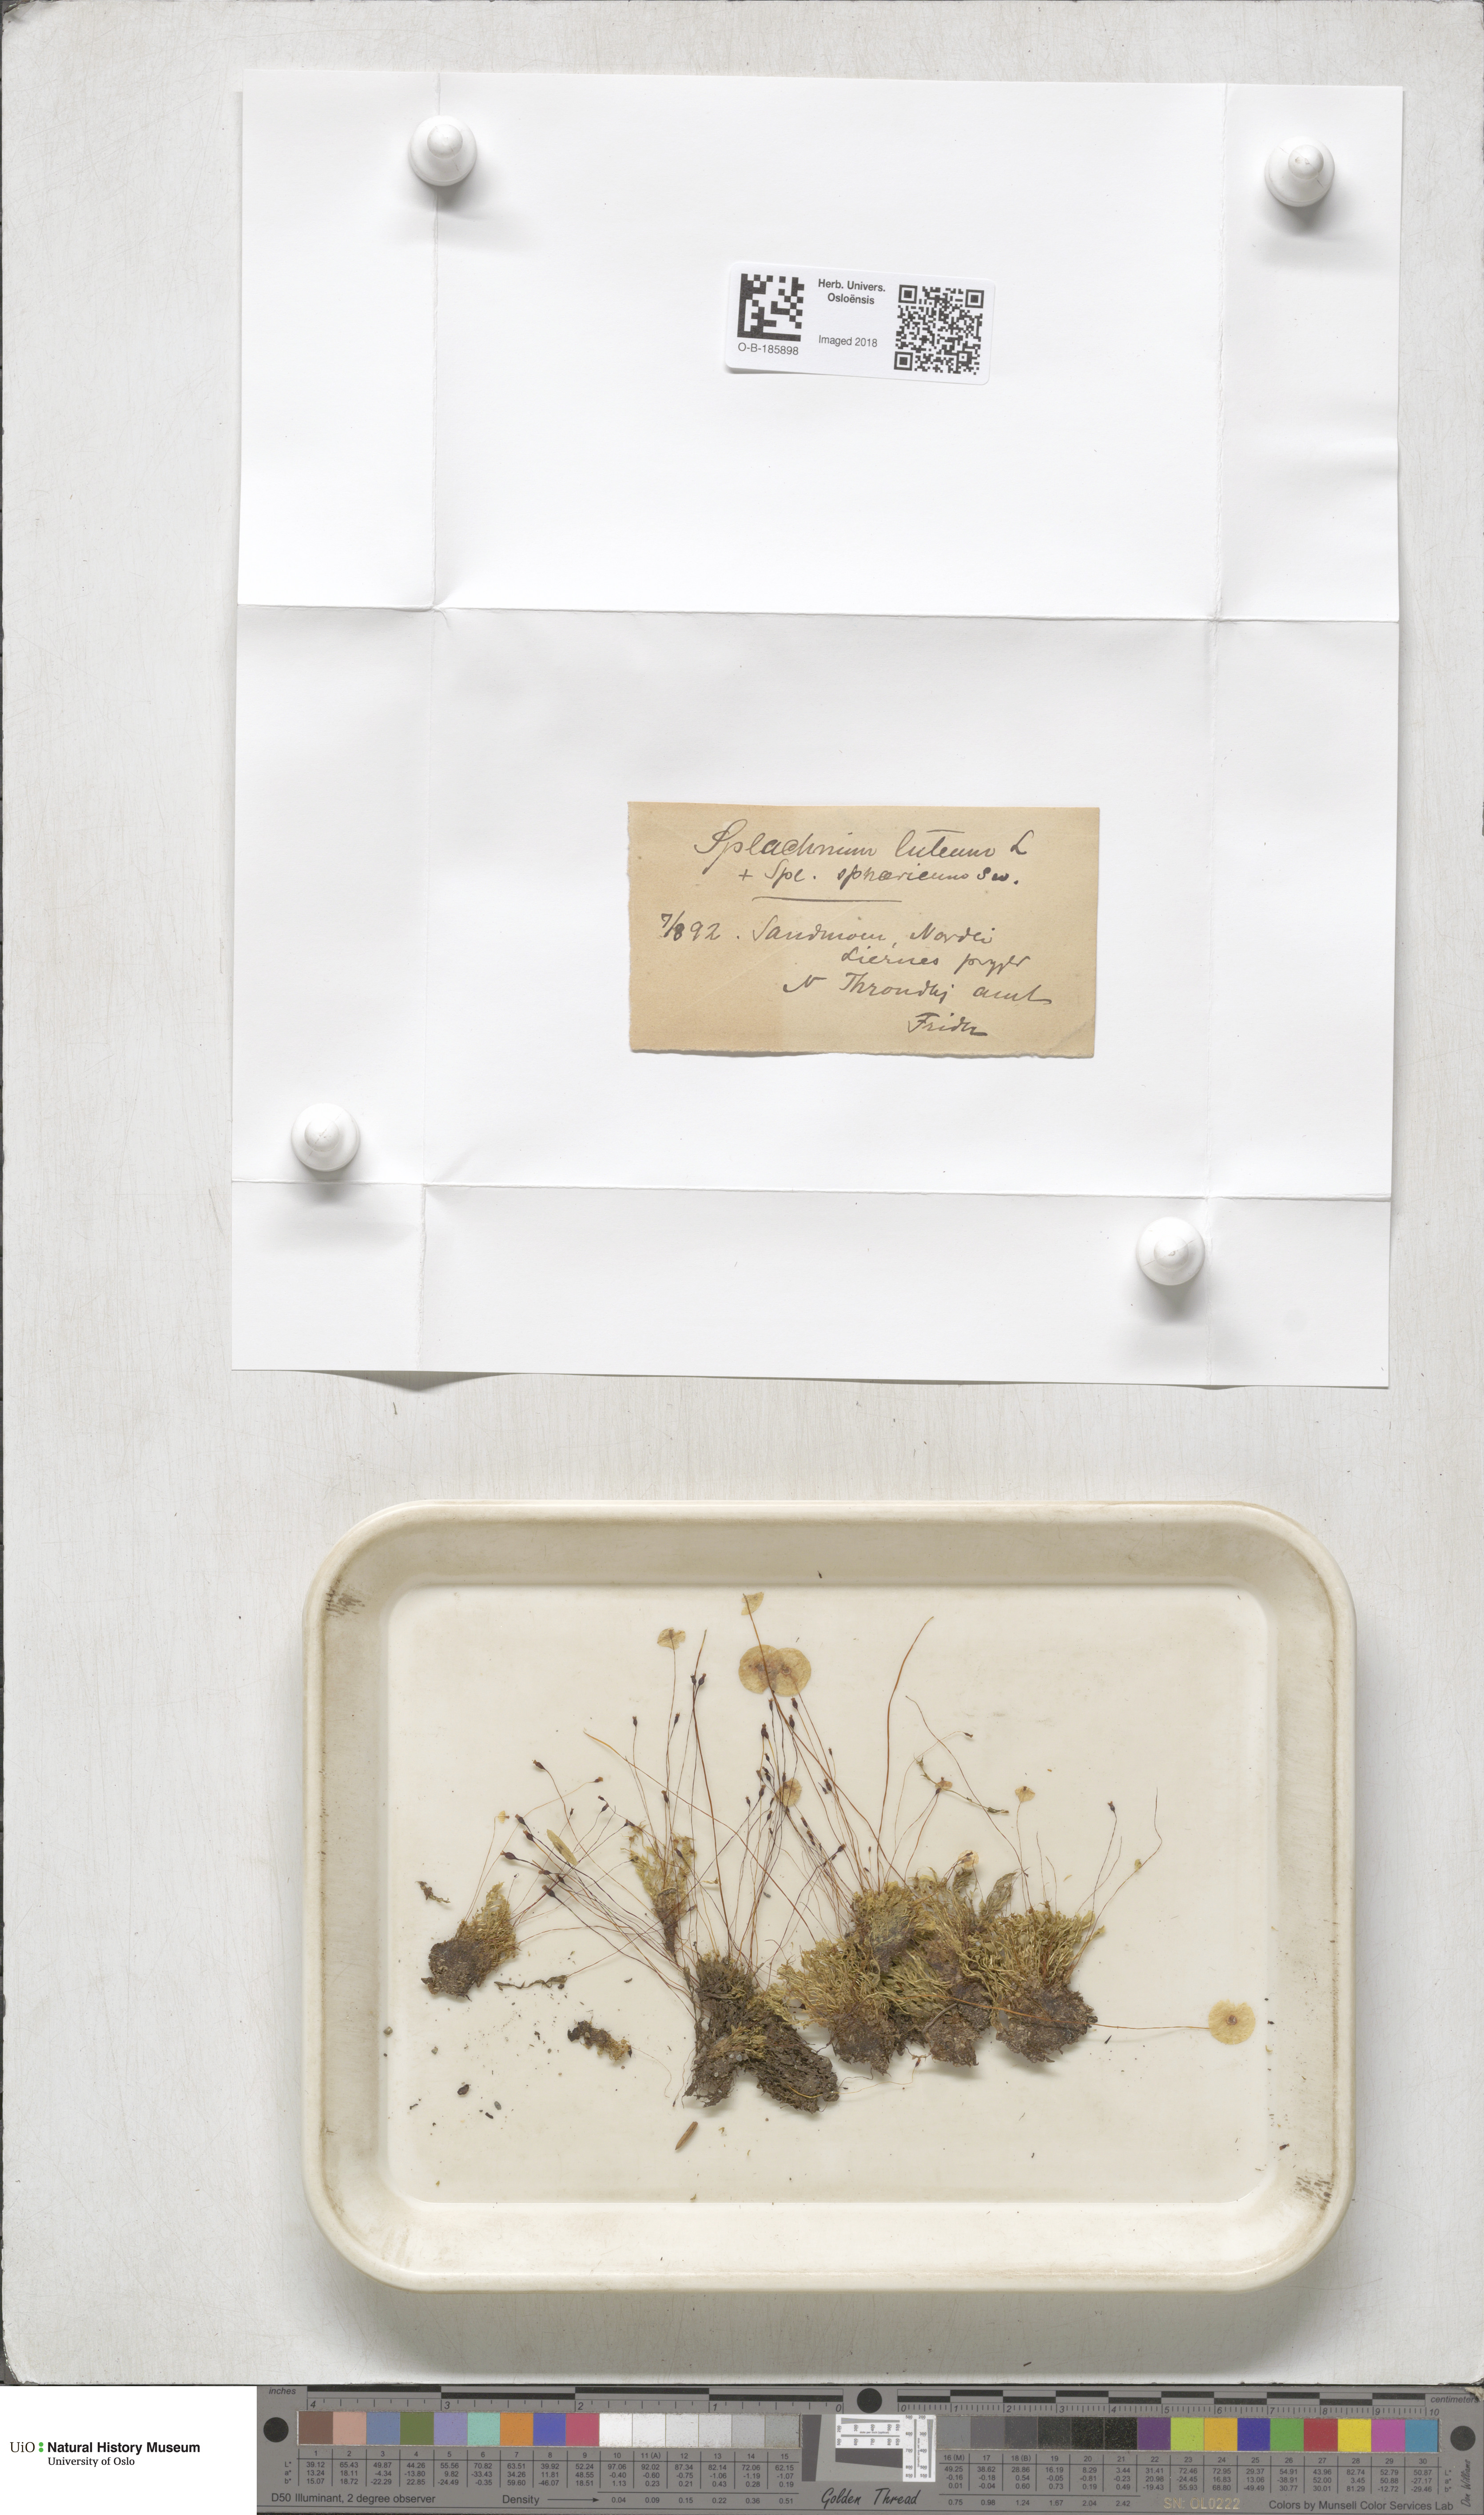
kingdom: Plantae
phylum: Bryophyta
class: Bryopsida
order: Splachnales
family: Splachnaceae
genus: Splachnum
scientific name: Splachnum luteum
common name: Yellow dung moss
